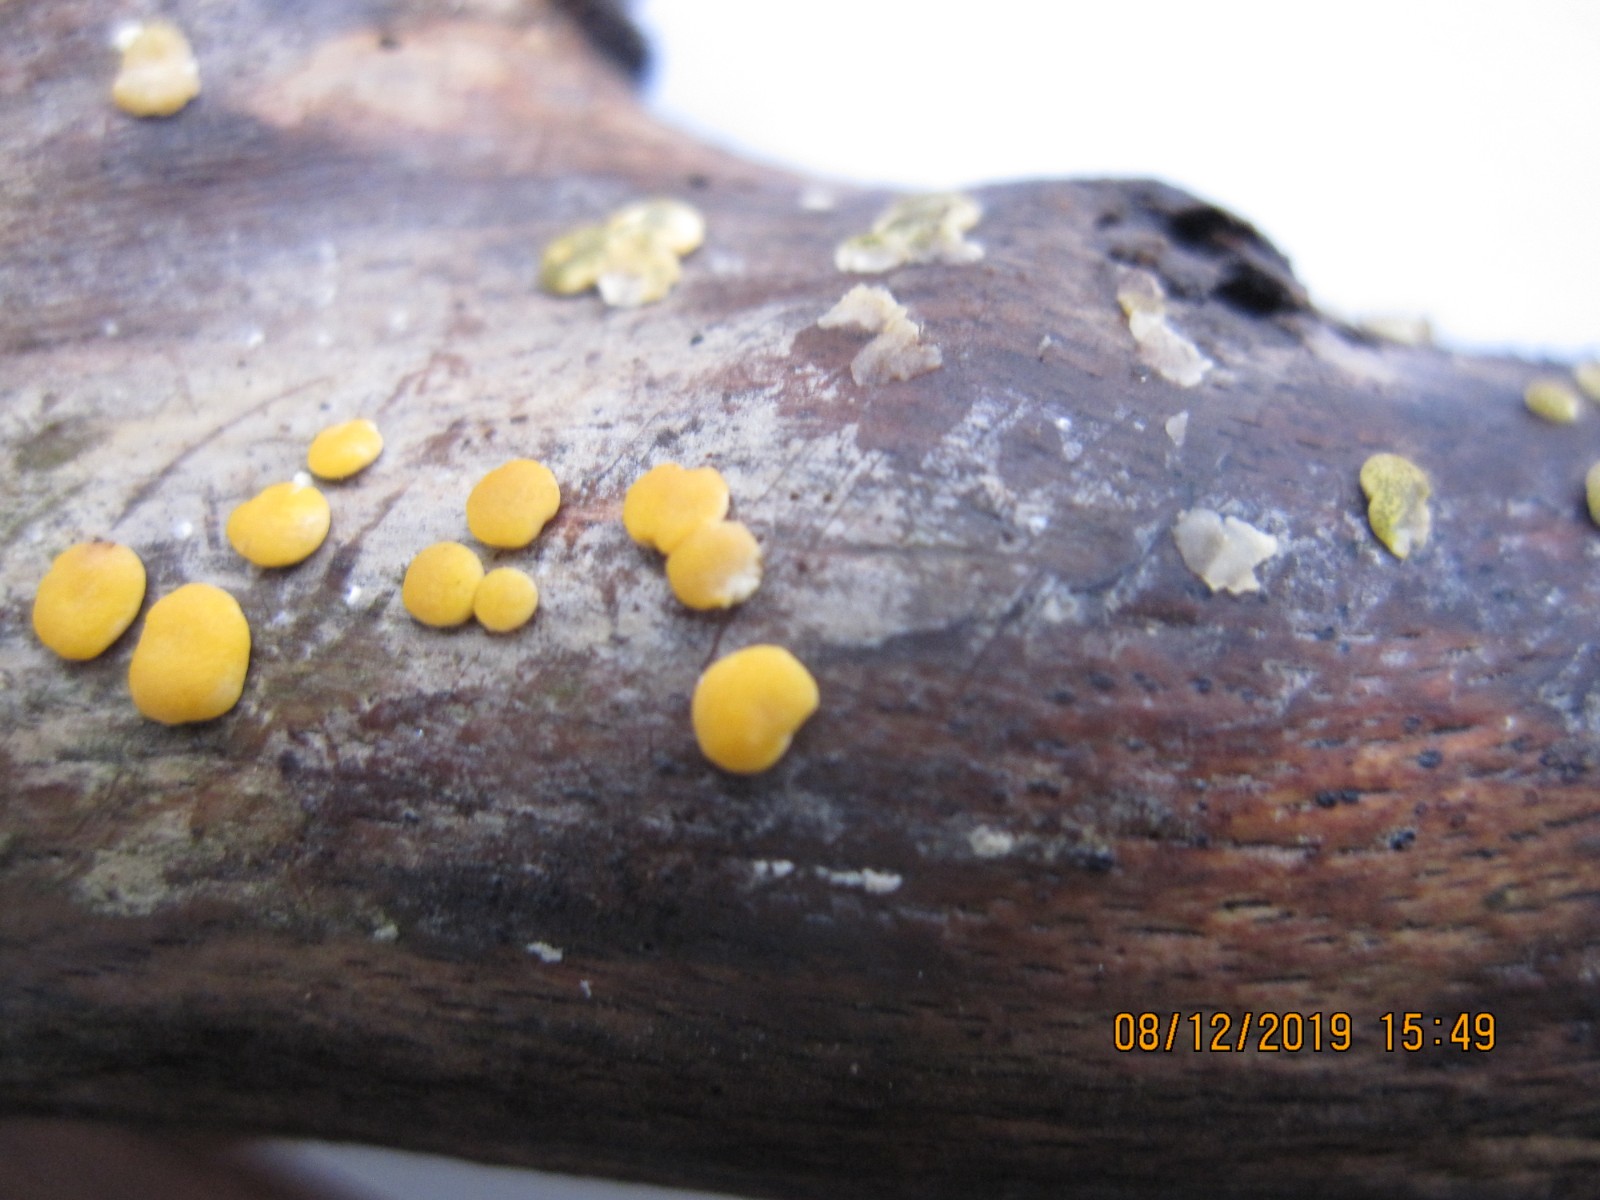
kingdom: Fungi
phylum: Ascomycota
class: Sordariomycetes
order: Hypocreales
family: Hypocreaceae
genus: Trichoderma
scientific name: Trichoderma aureoviride
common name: æggegul kødkerne
